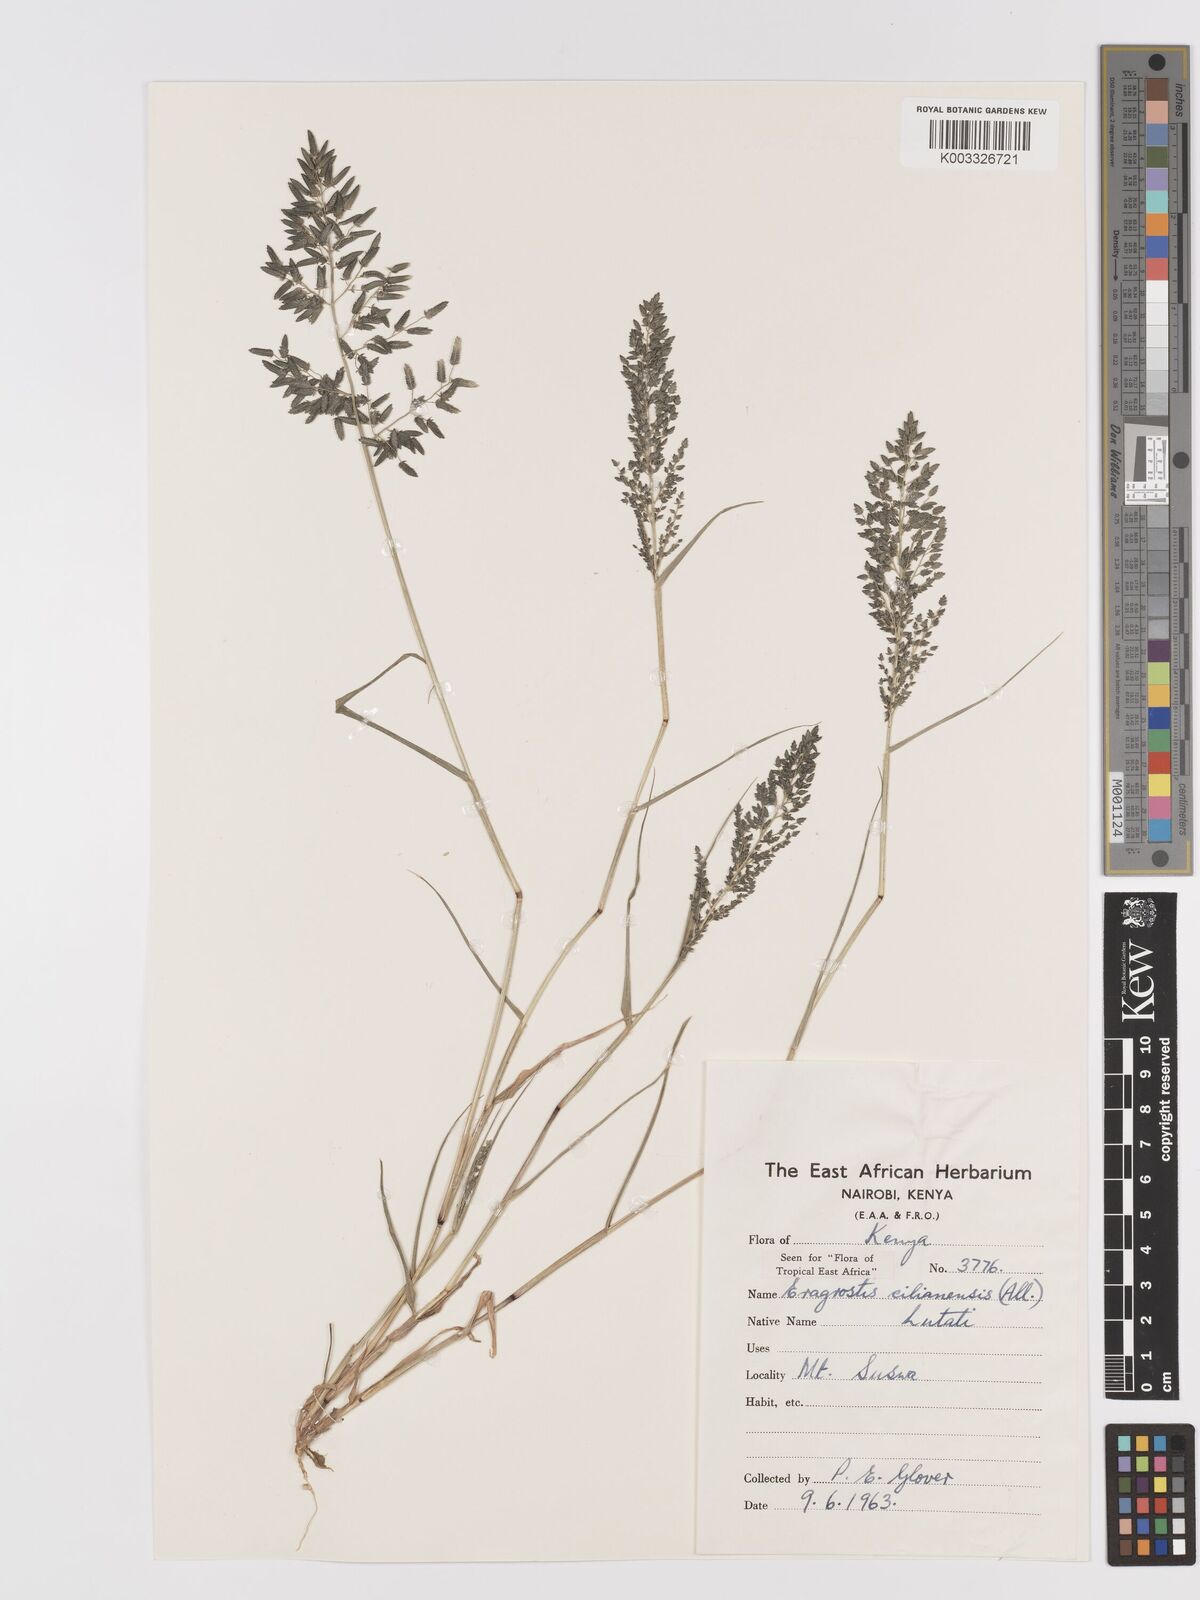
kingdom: Plantae
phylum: Tracheophyta
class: Liliopsida
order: Poales
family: Poaceae
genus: Eragrostis
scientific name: Eragrostis cilianensis
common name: Stinkgrass
